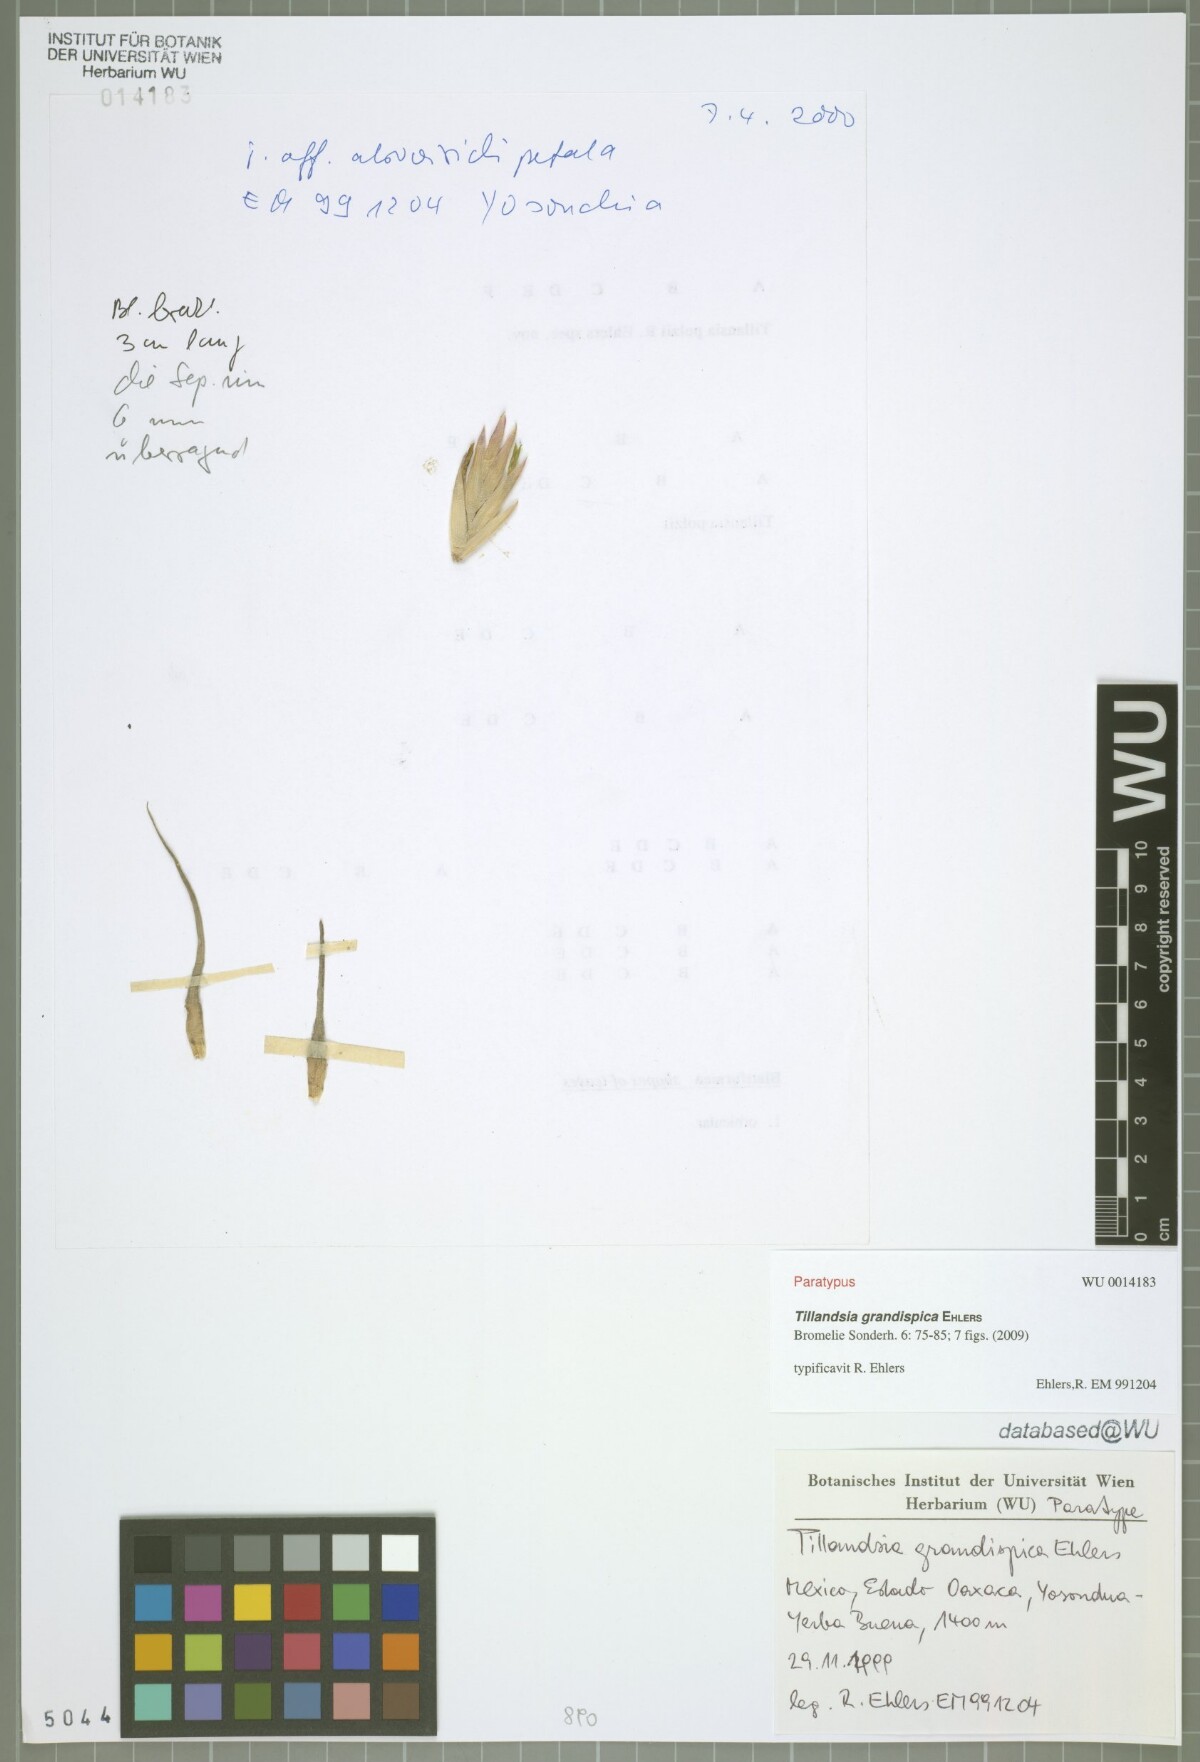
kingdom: Plantae
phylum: Tracheophyta
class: Liliopsida
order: Poales
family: Bromeliaceae
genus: Tillandsia
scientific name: Tillandsia grandispica
